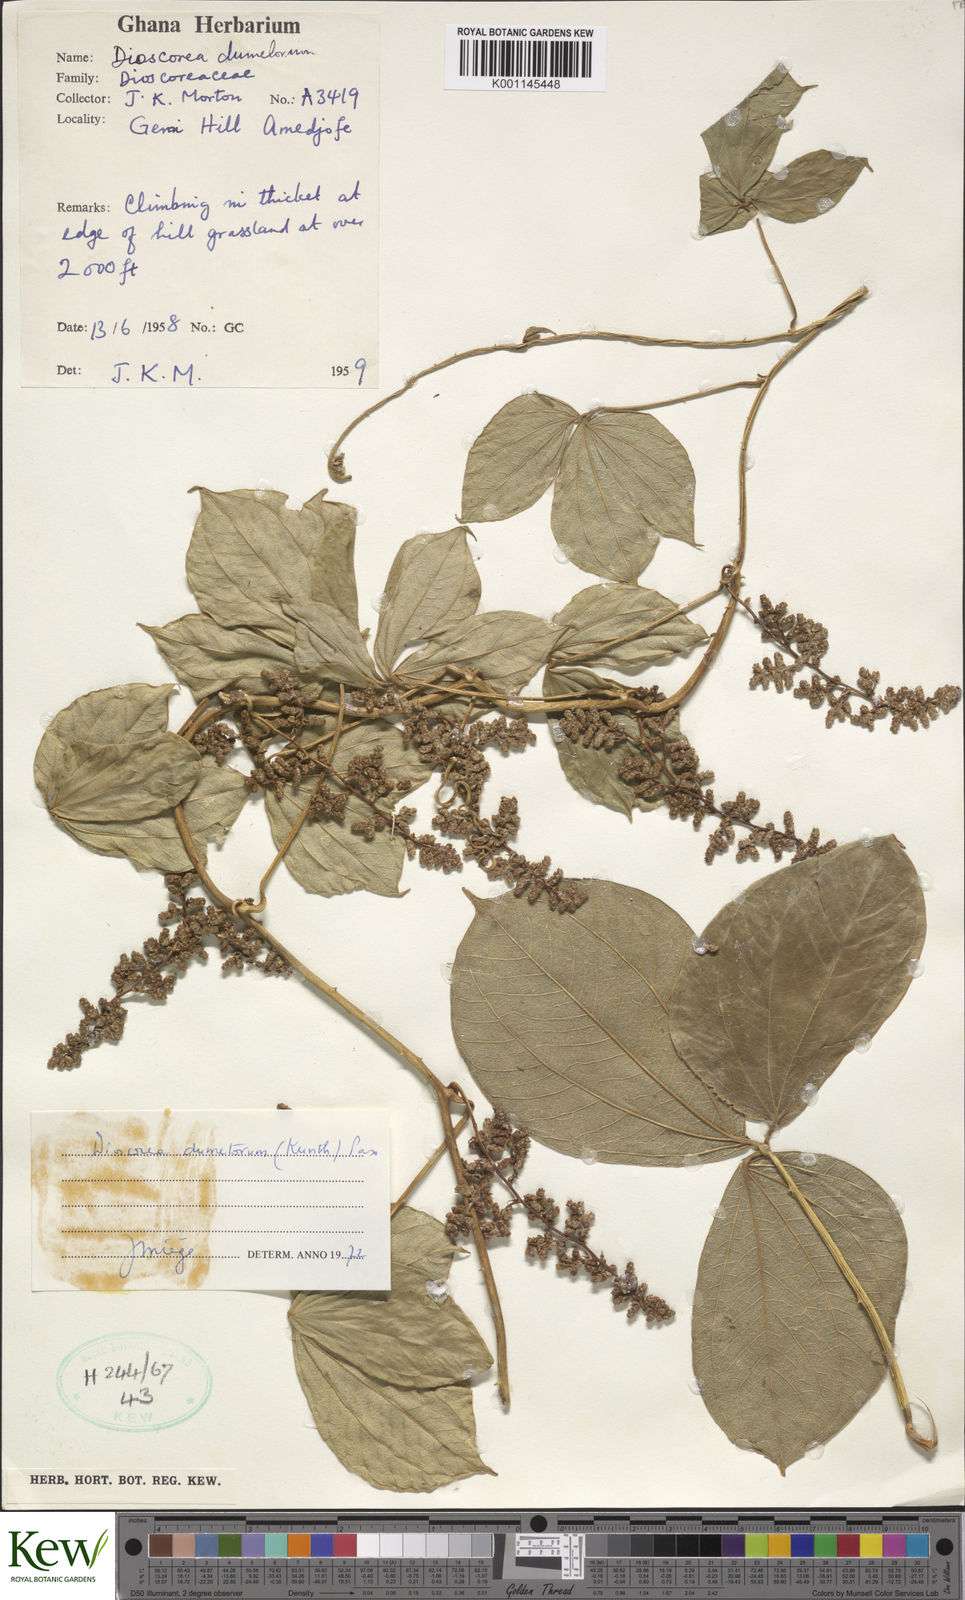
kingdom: Plantae
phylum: Tracheophyta
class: Liliopsida
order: Dioscoreales
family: Dioscoreaceae
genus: Dioscorea
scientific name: Dioscorea dumetorum
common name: African bitter yam
